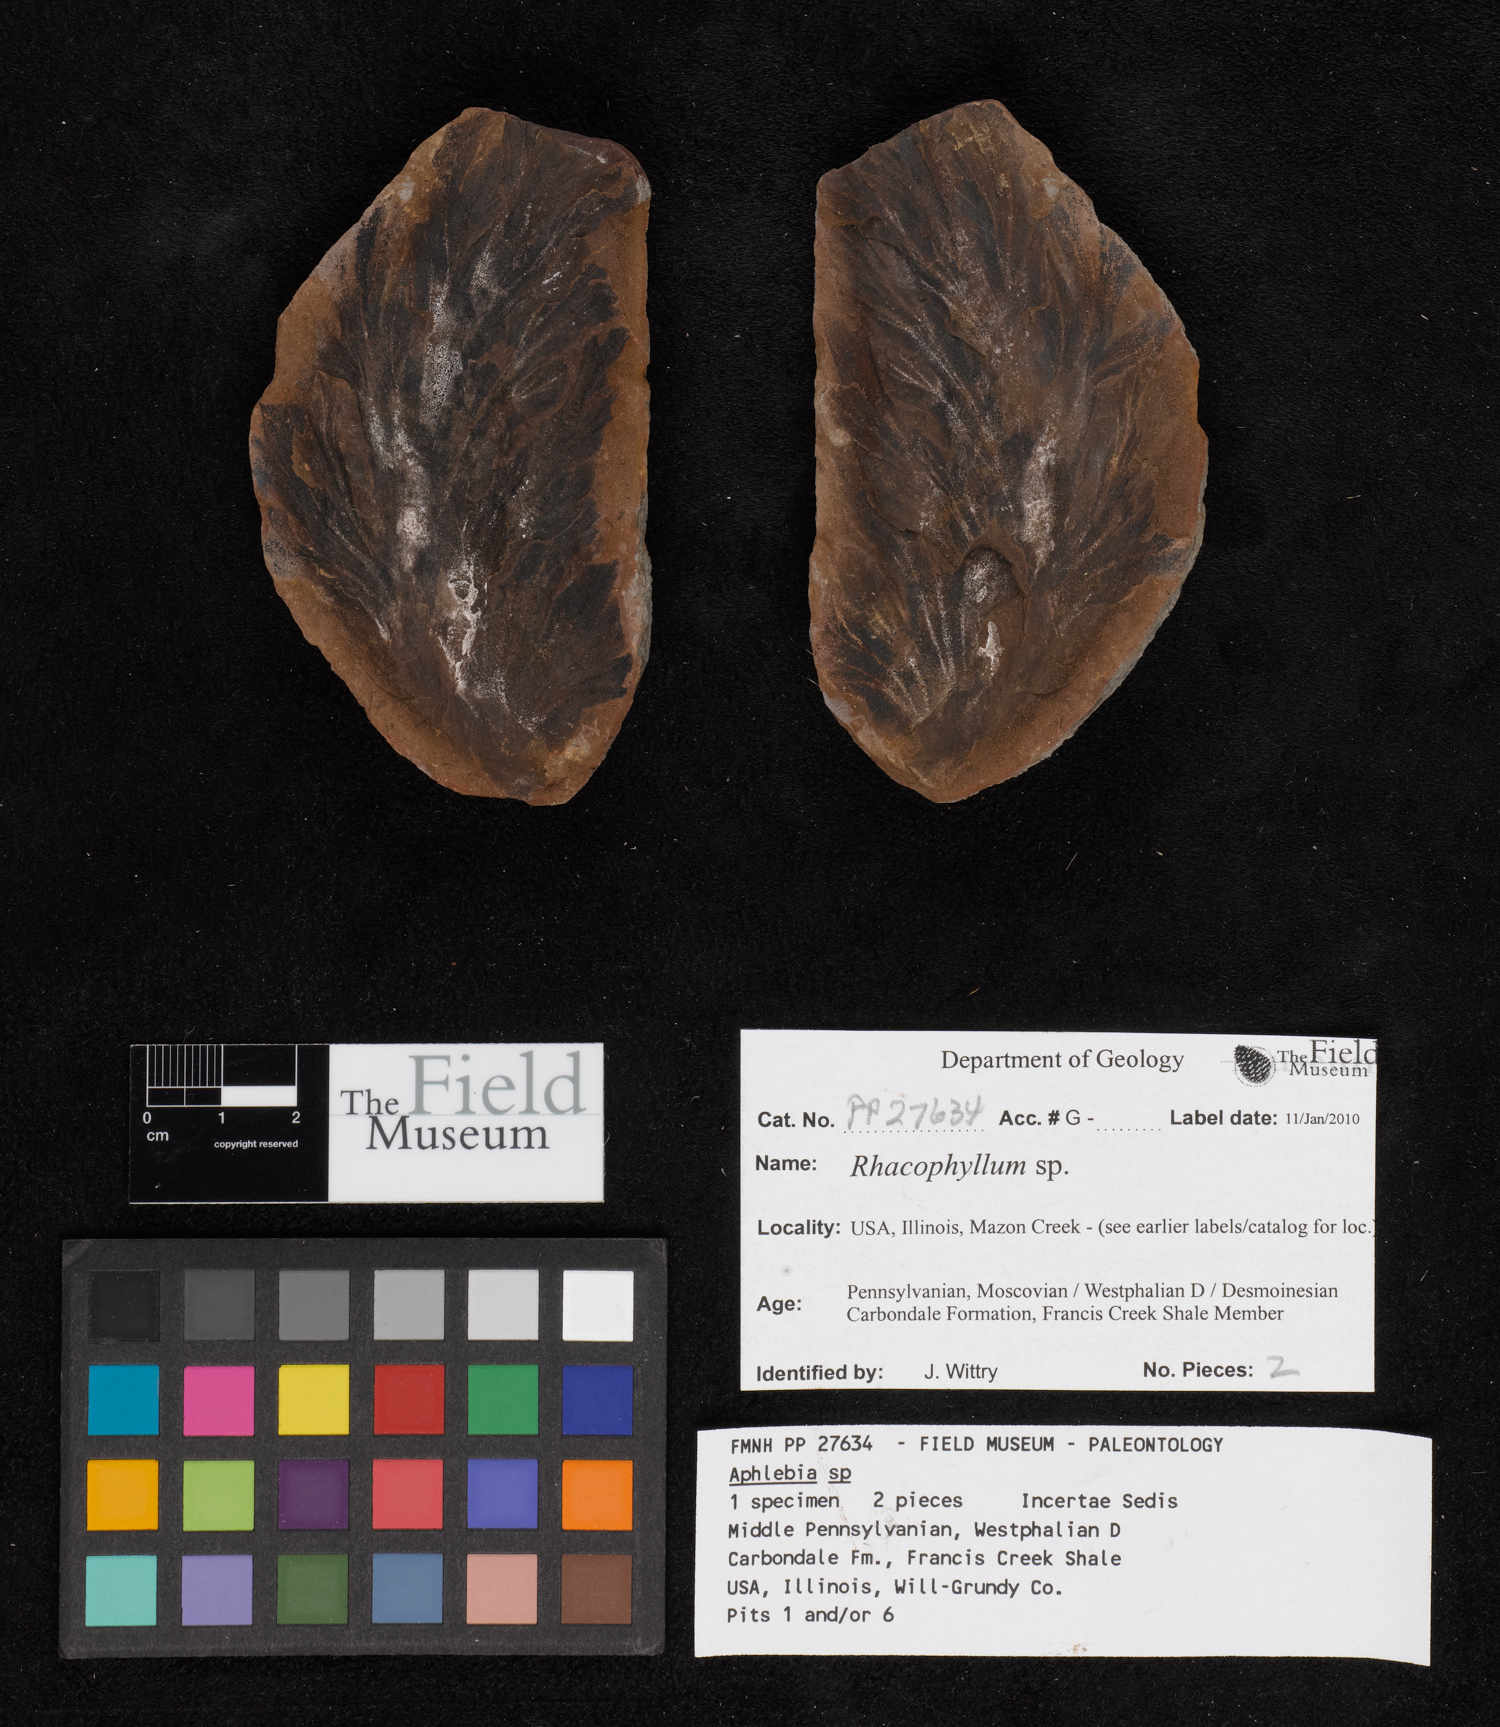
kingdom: Plantae
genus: Rhacophyllum
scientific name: Rhacophyllum
